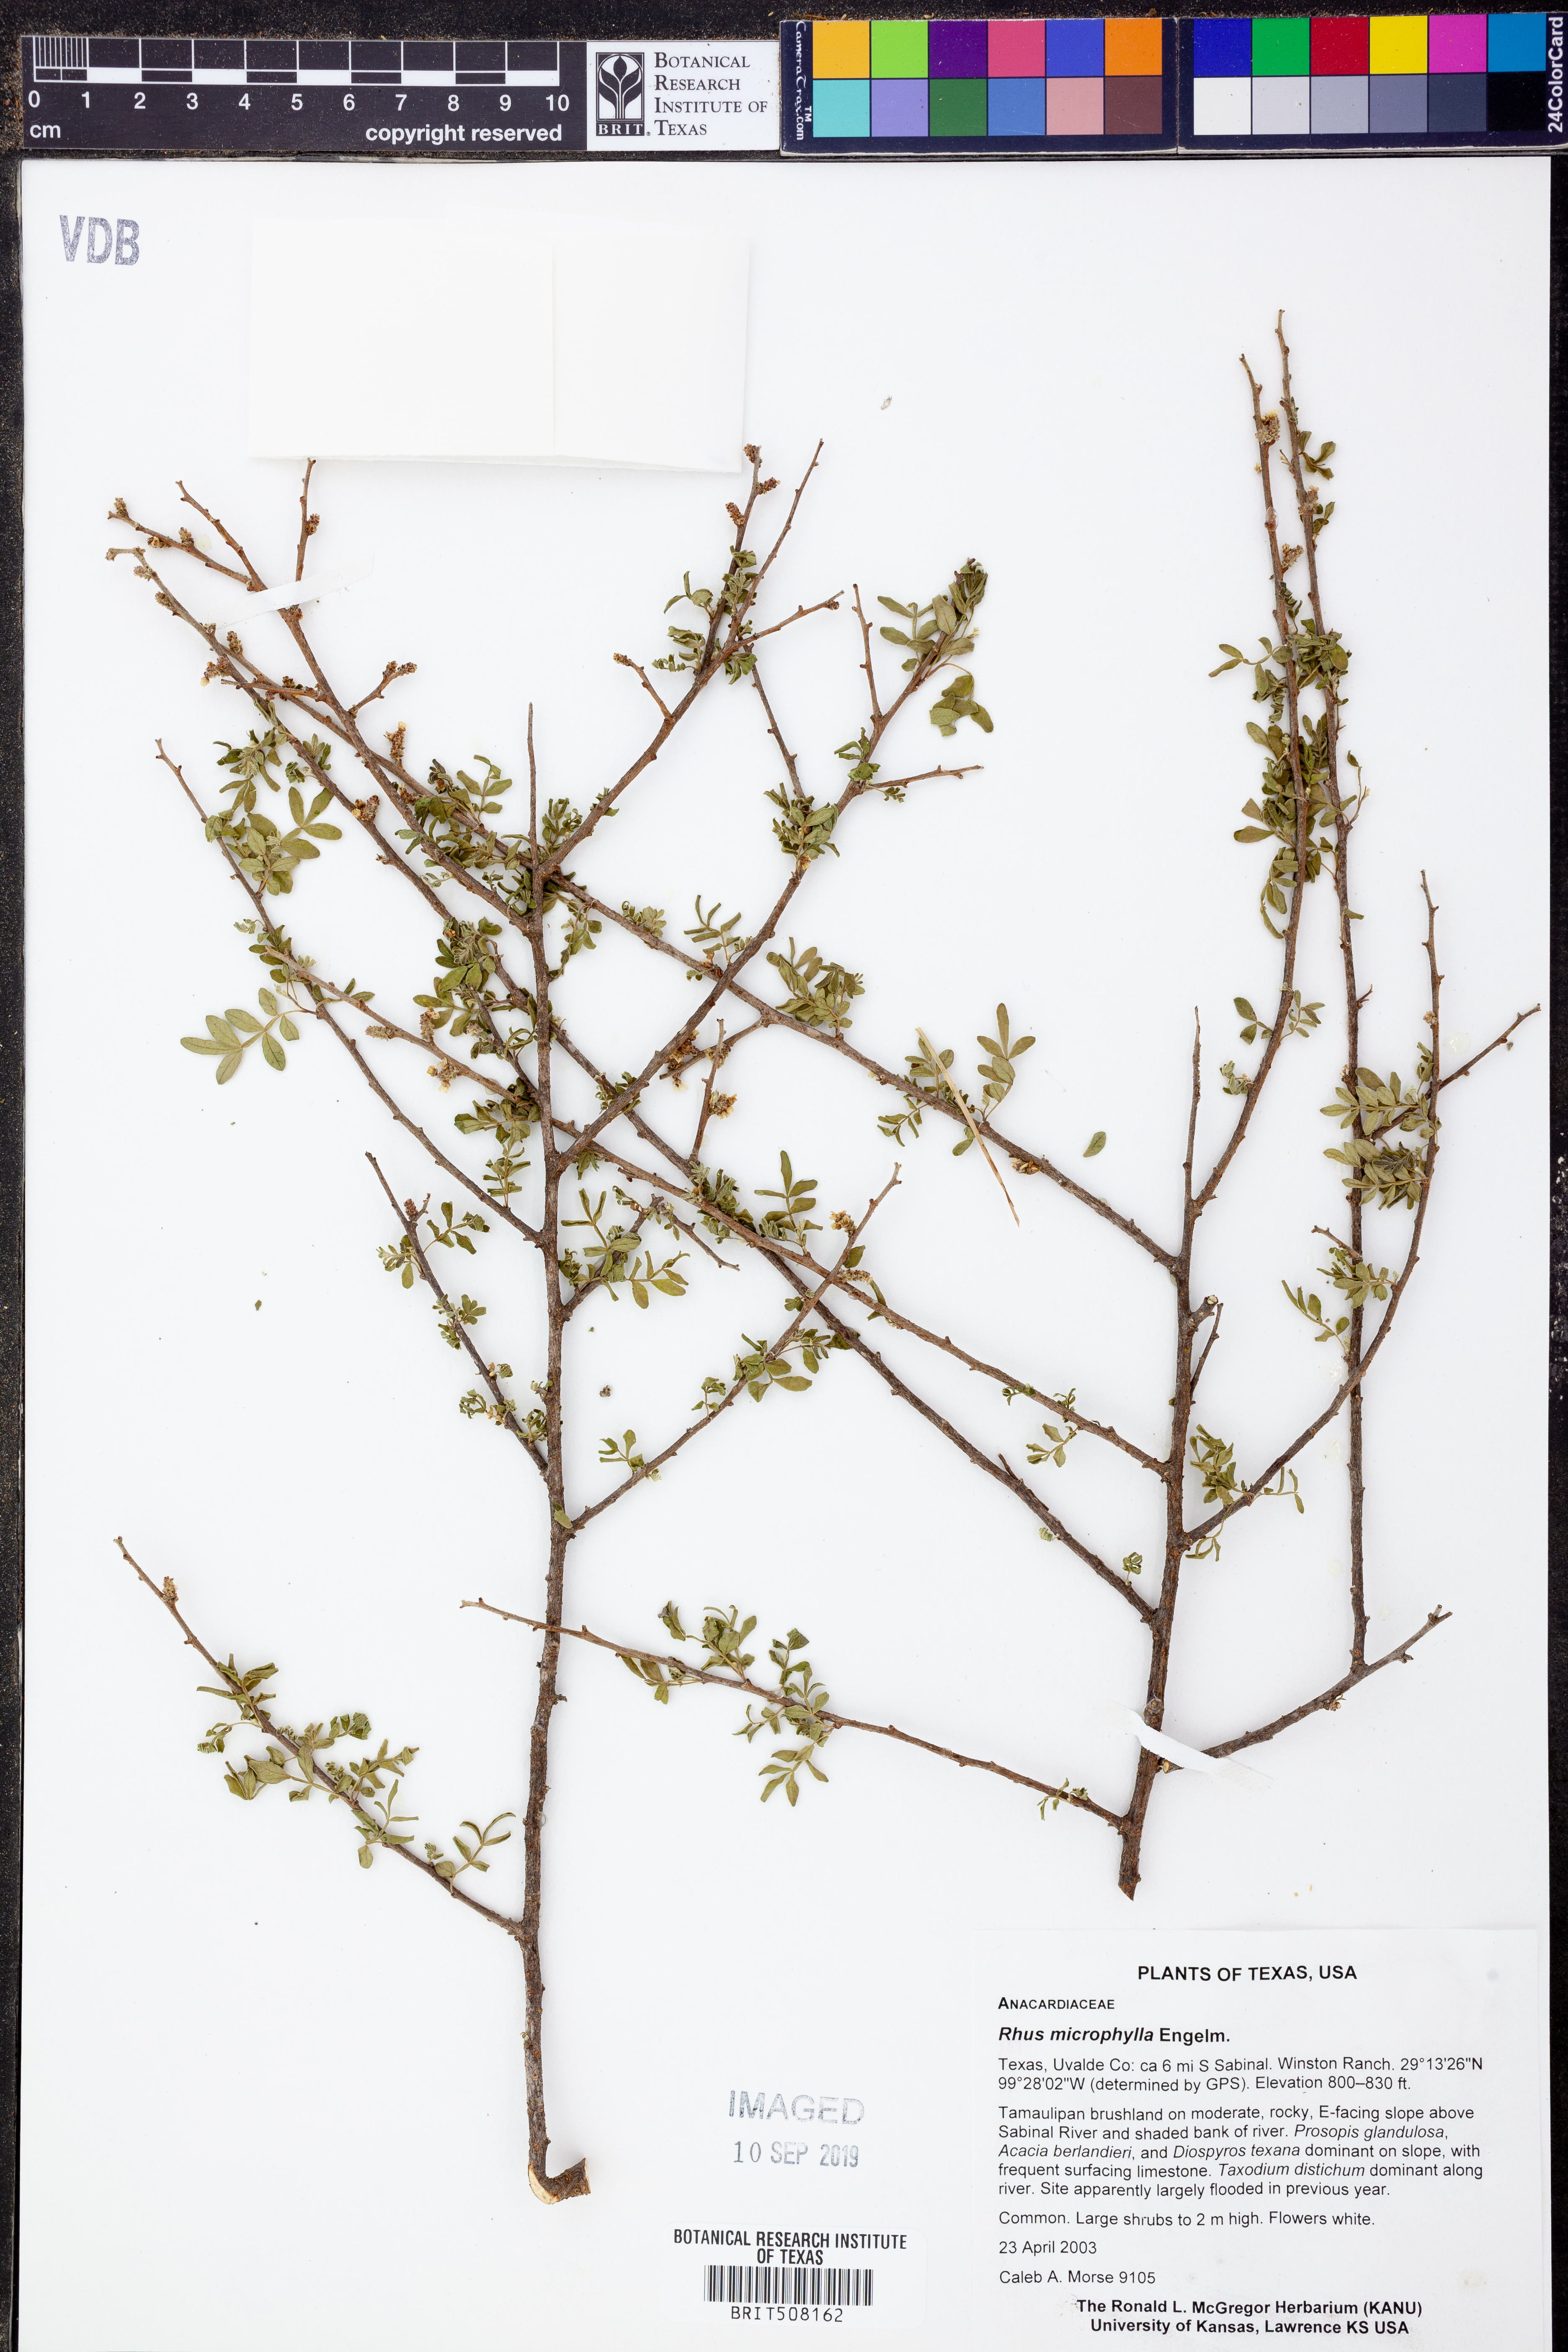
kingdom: Plantae
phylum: Tracheophyta
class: Magnoliopsida
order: Sapindales
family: Anacardiaceae
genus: Rhus
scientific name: Rhus microphylla
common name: Desert sumac
